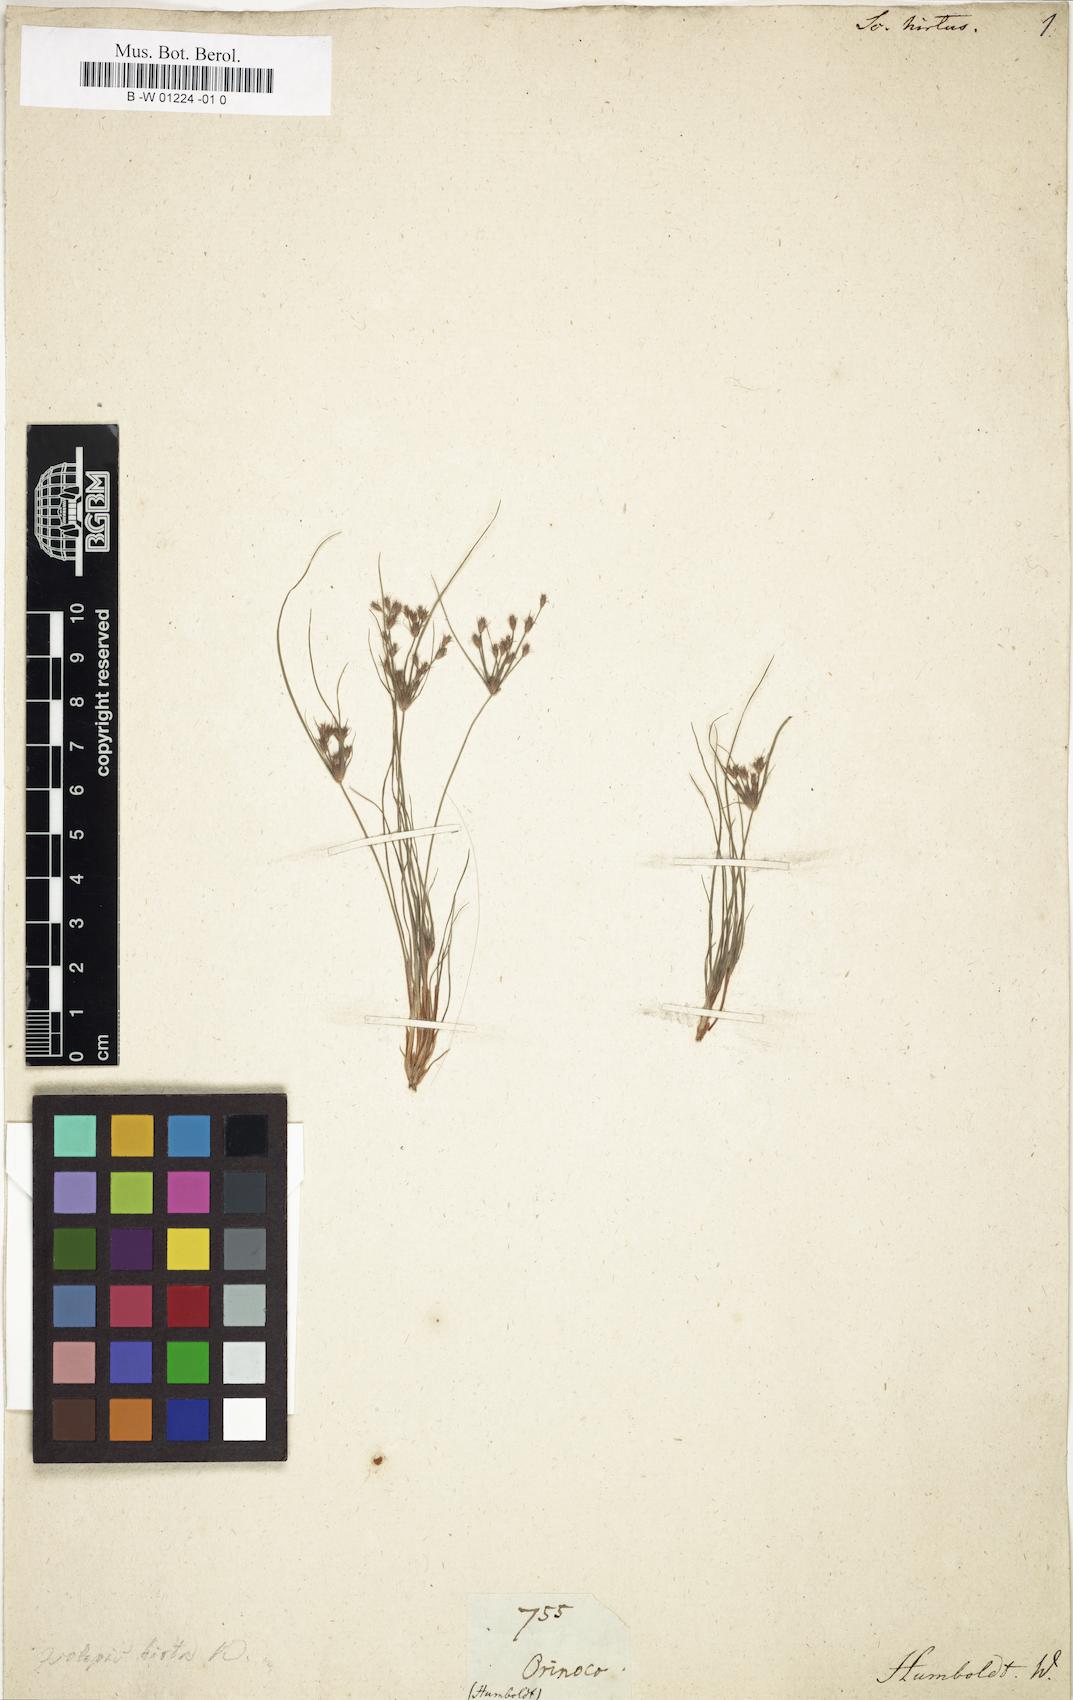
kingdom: Plantae
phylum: Tracheophyta
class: Liliopsida
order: Poales
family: Cyperaceae
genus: Fimbristylis
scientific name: Fimbristylis squarrosa
